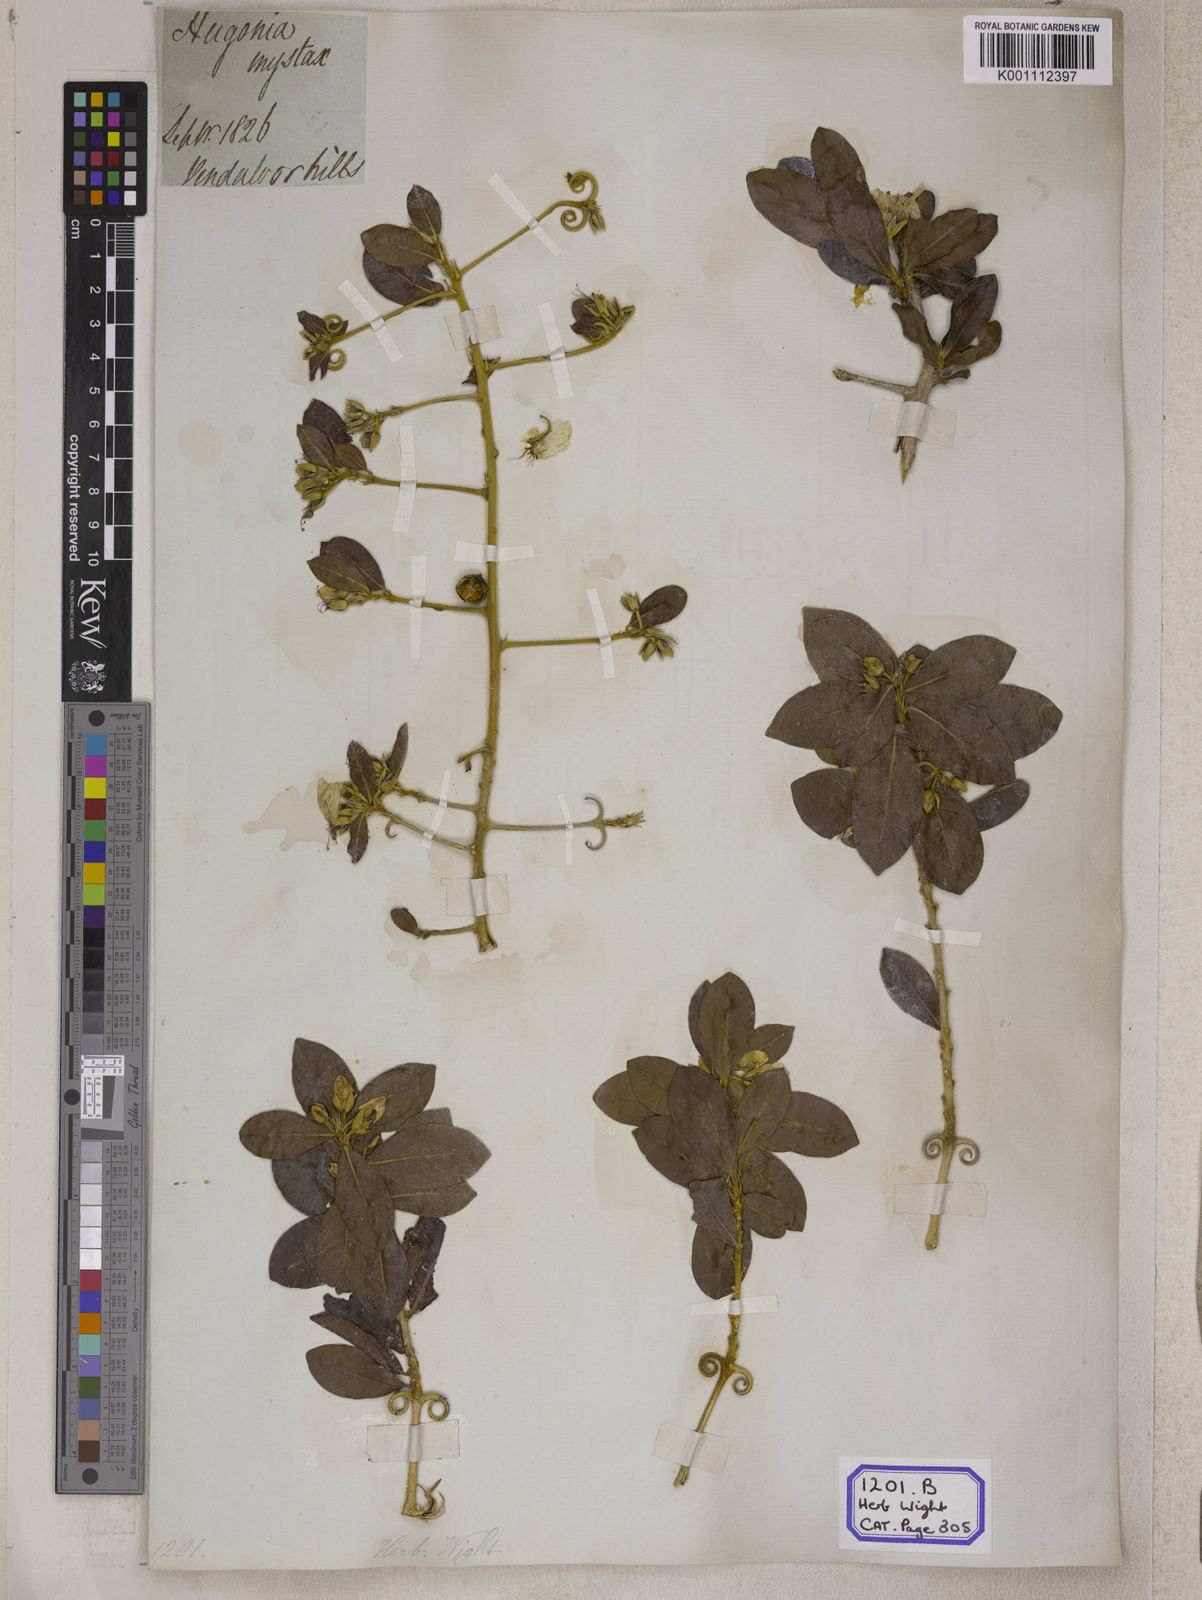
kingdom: Plantae
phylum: Tracheophyta
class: Magnoliopsida
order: Malpighiales
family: Linaceae
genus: Hugonia
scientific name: Hugonia mystax
